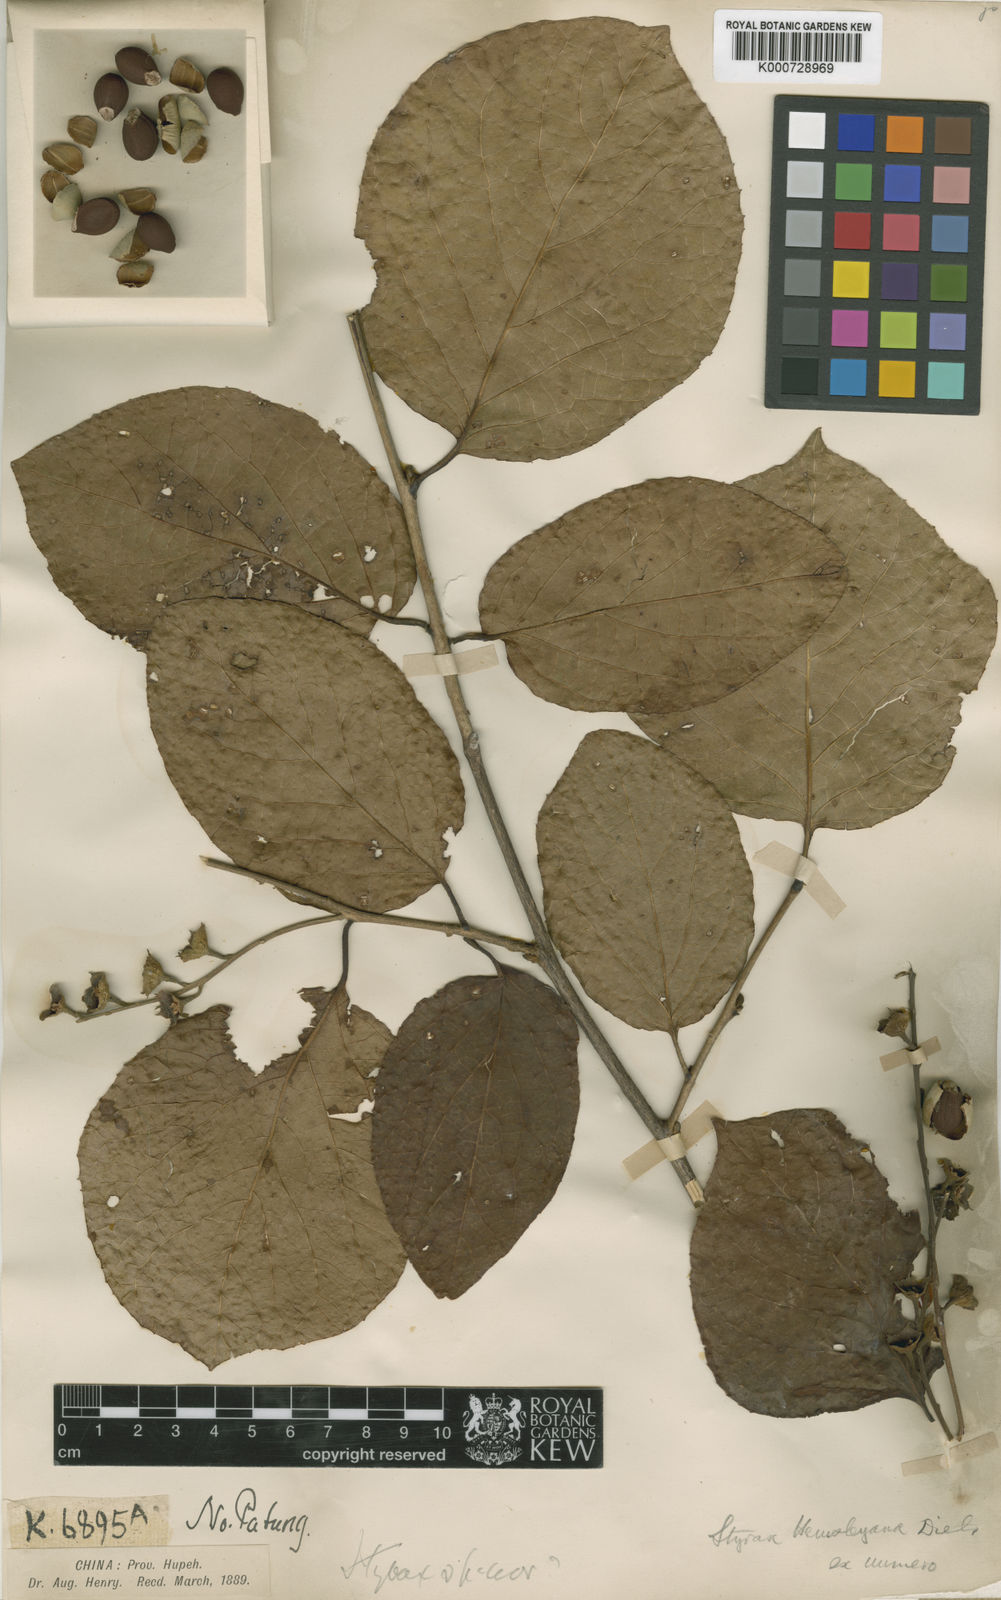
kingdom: Plantae
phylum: Tracheophyta
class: Magnoliopsida
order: Ericales
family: Styracaceae
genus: Styrax
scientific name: Styrax hemsleyanus
